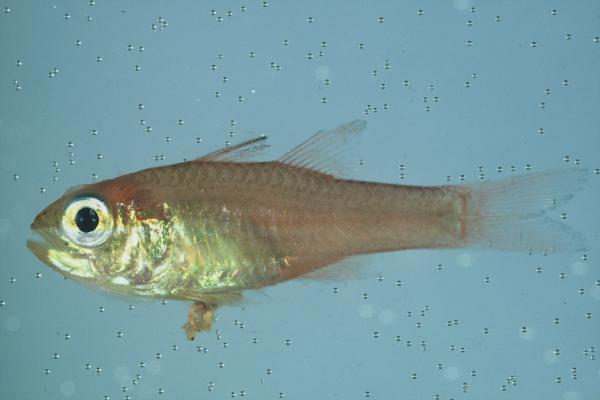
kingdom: Animalia
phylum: Chordata
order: Perciformes
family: Apogonidae
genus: Ostorhinchus
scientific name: Ostorhinchus apogonoides
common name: Goldbelly cardinalfish
